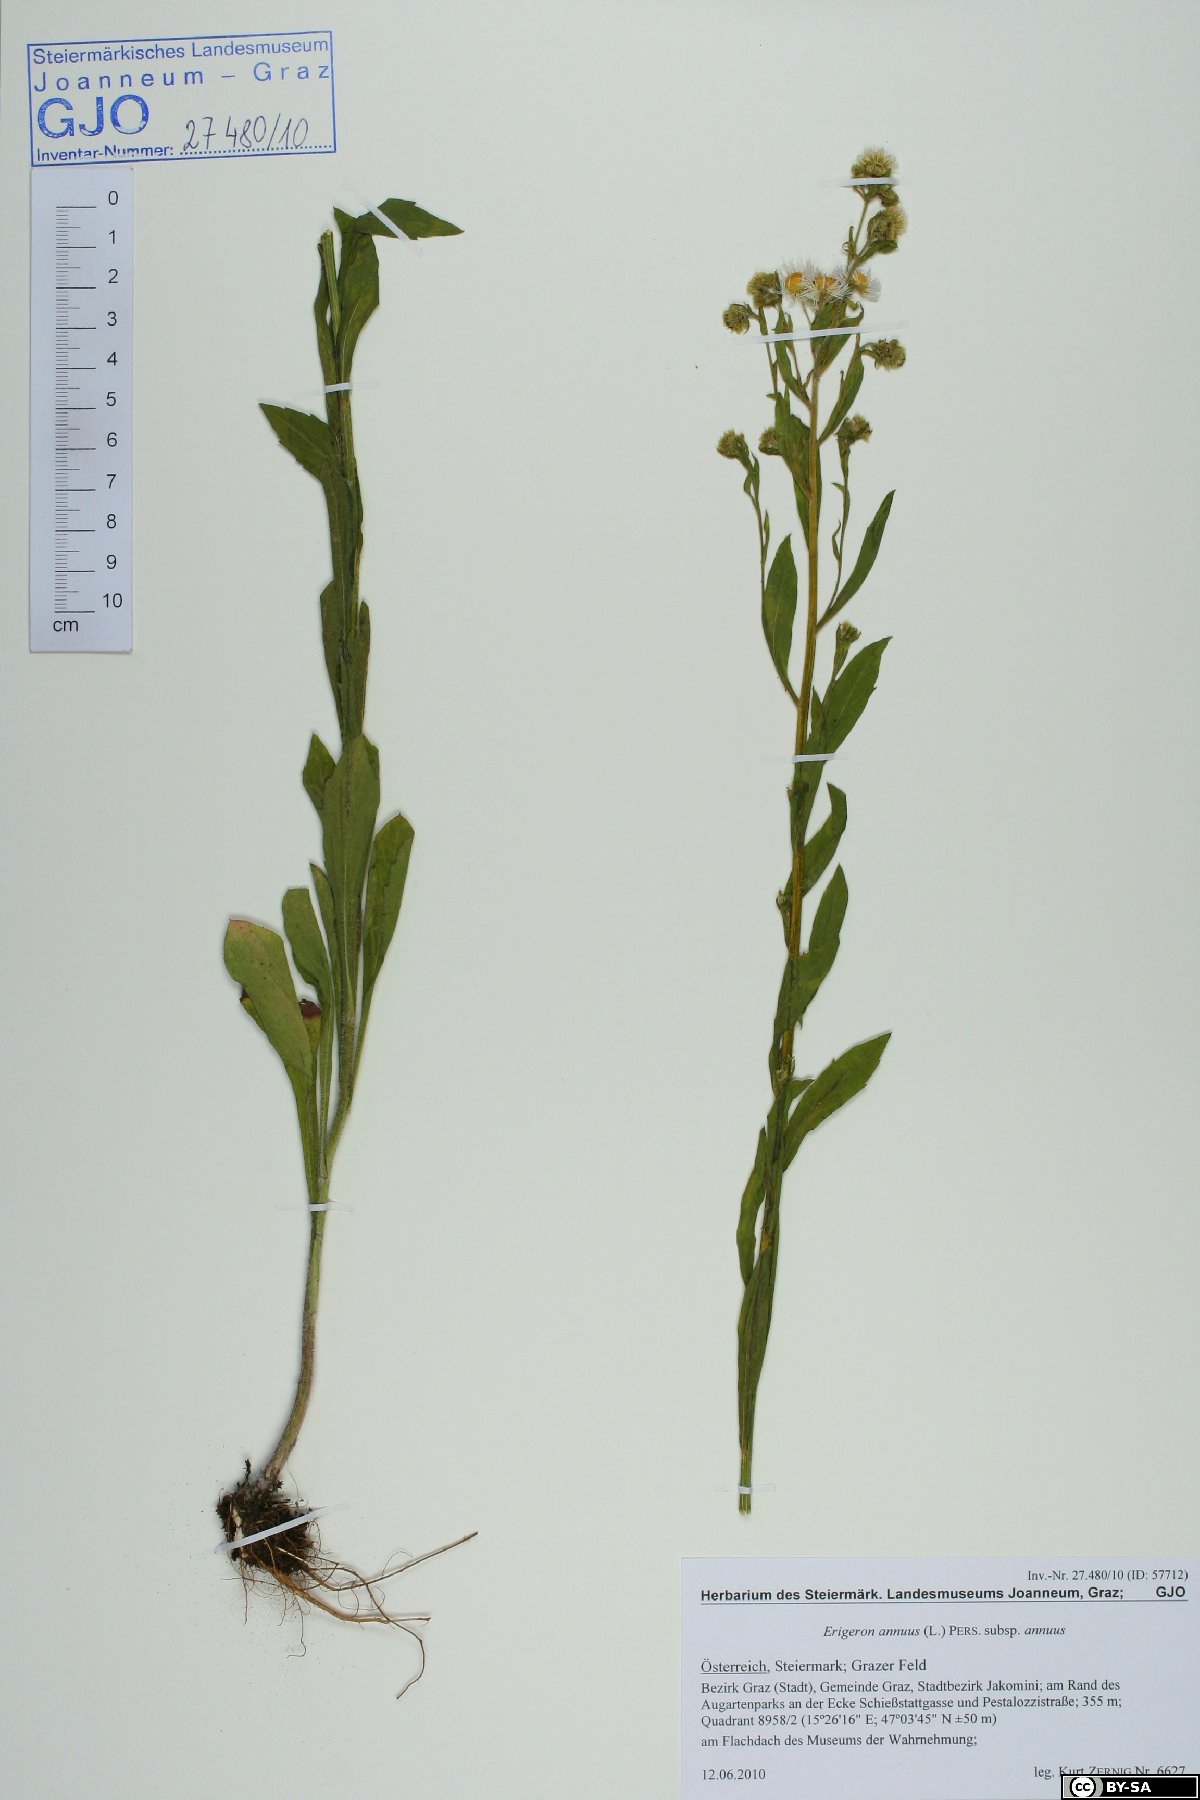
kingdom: Plantae
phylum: Tracheophyta
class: Magnoliopsida
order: Asterales
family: Asteraceae
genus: Erigeron
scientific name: Erigeron annuus
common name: Tall fleabane
